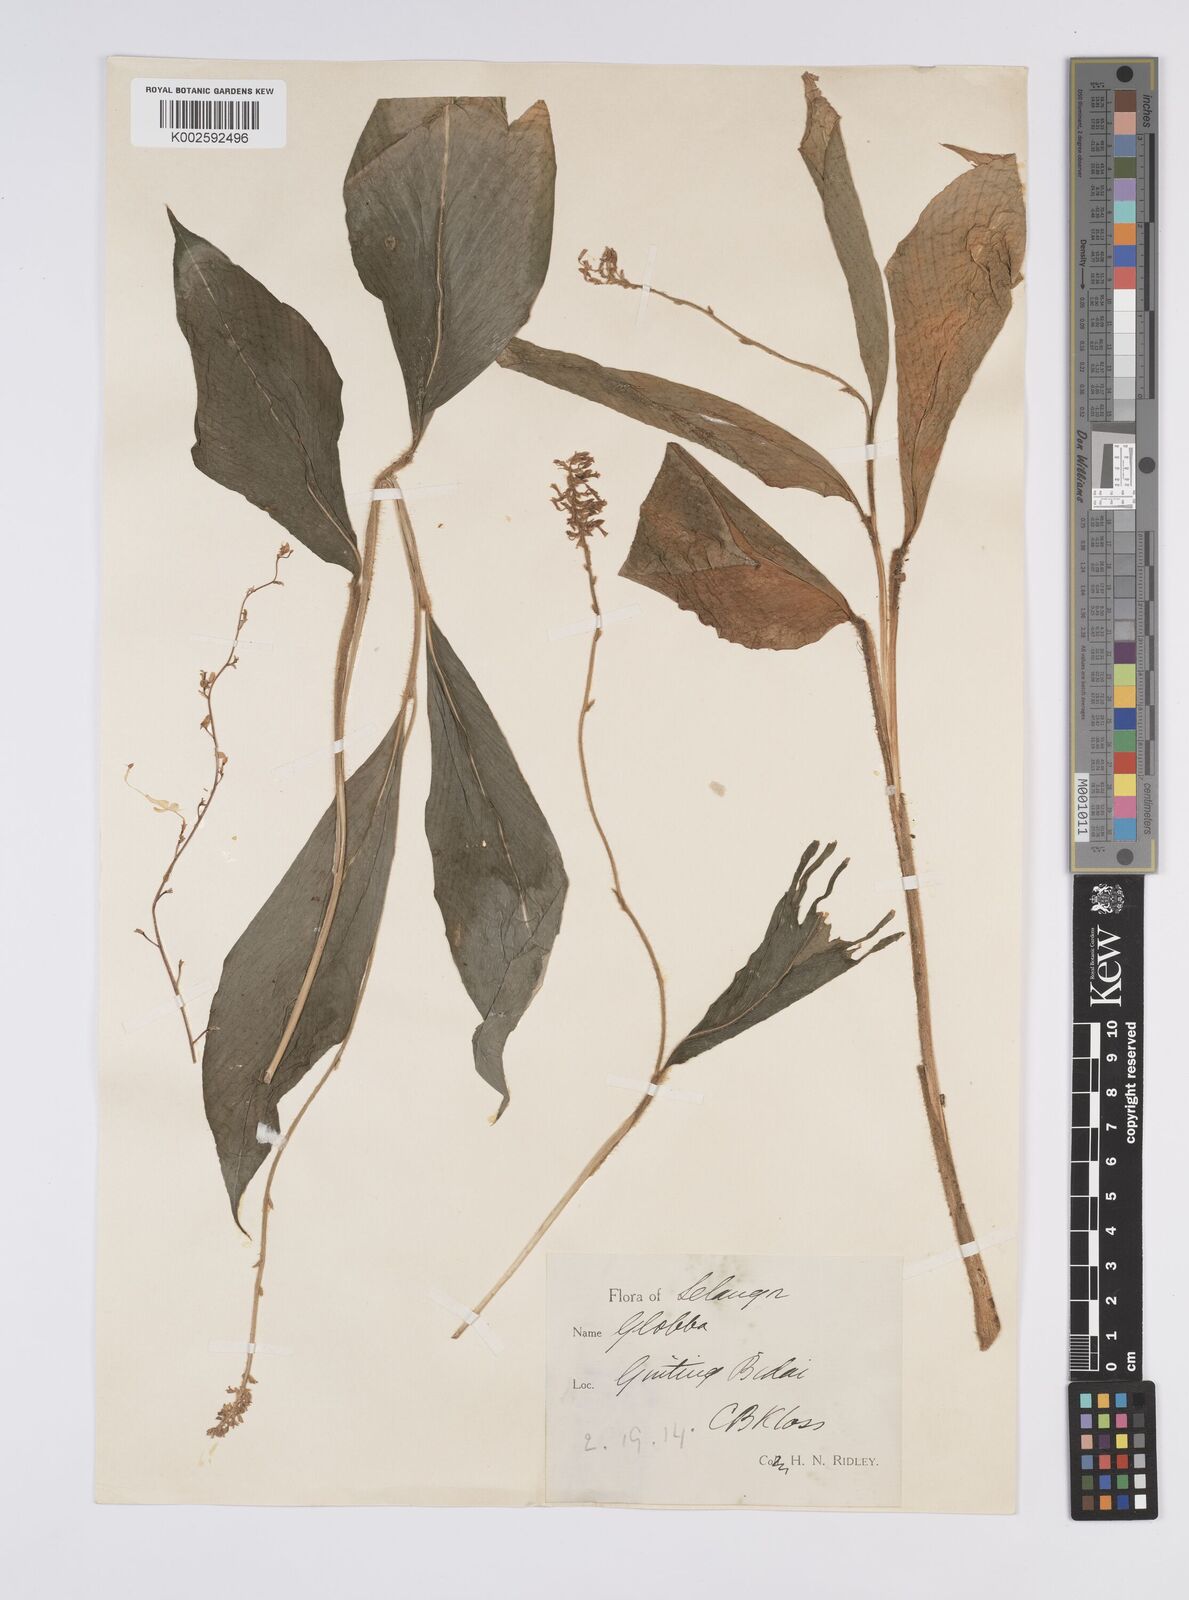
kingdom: Plantae
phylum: Tracheophyta
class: Liliopsida
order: Zingiberales
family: Zingiberaceae
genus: Globba
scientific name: Globba aurantiaca
